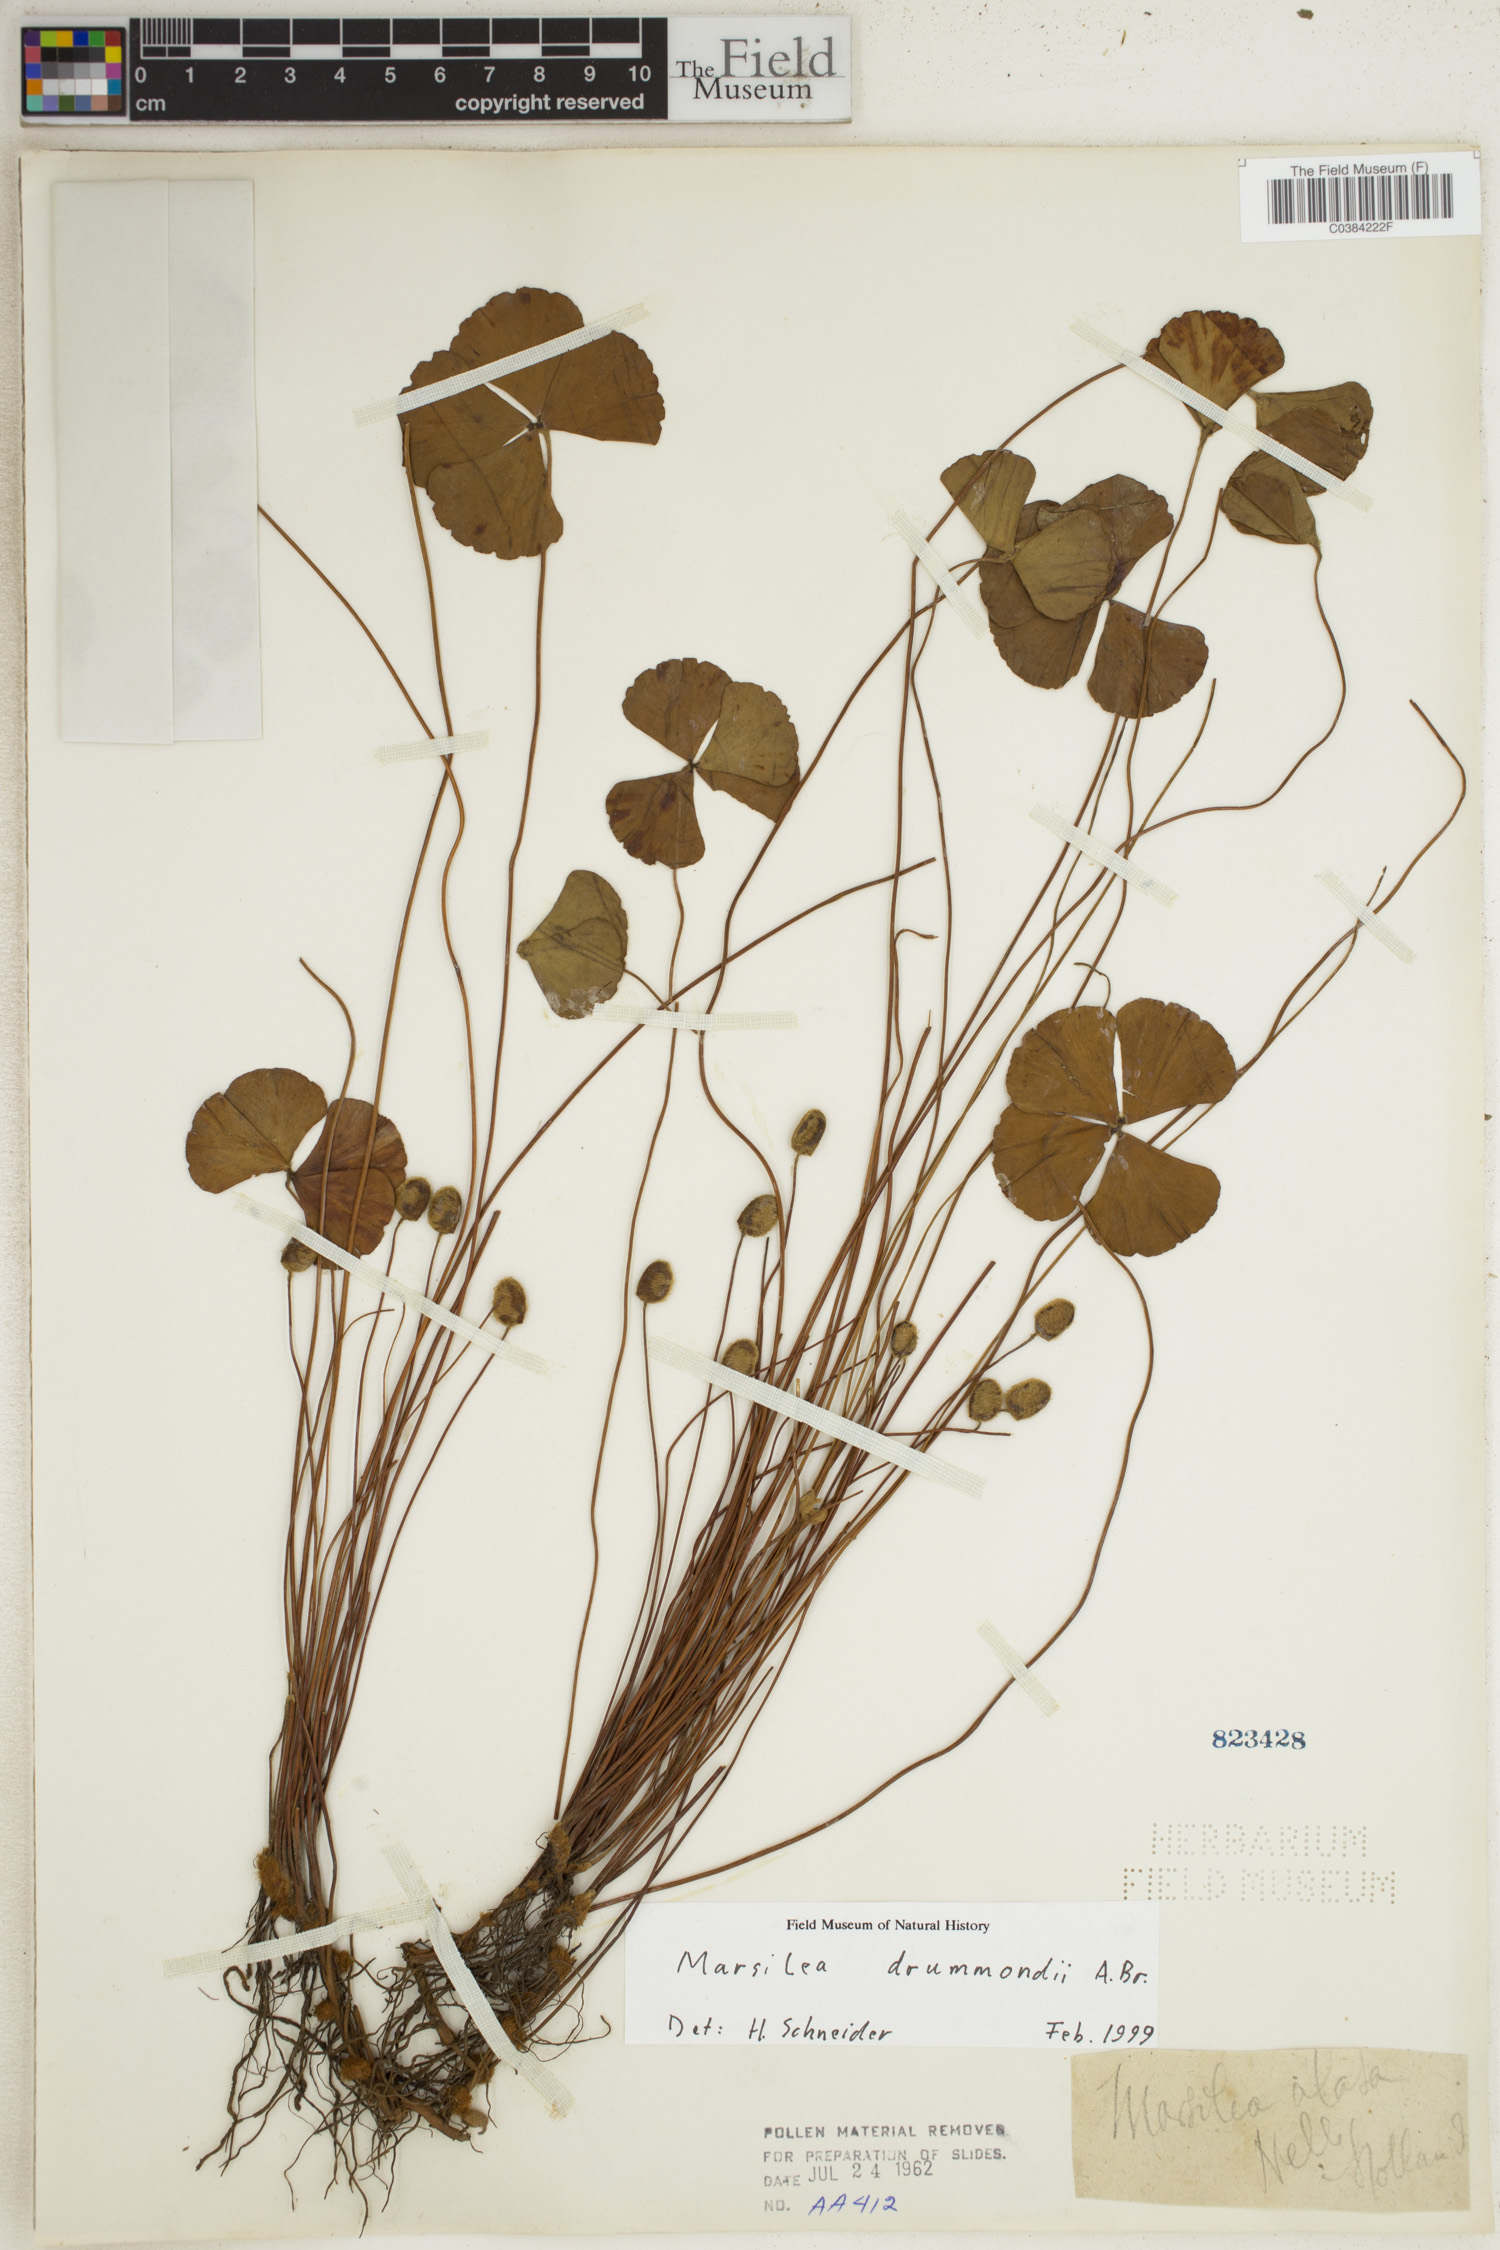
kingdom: Plantae
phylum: Tracheophyta
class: Polypodiopsida
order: Salviniales
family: Marsileaceae
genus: Marsilea
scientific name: Marsilea drummondii
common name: Nardoo
